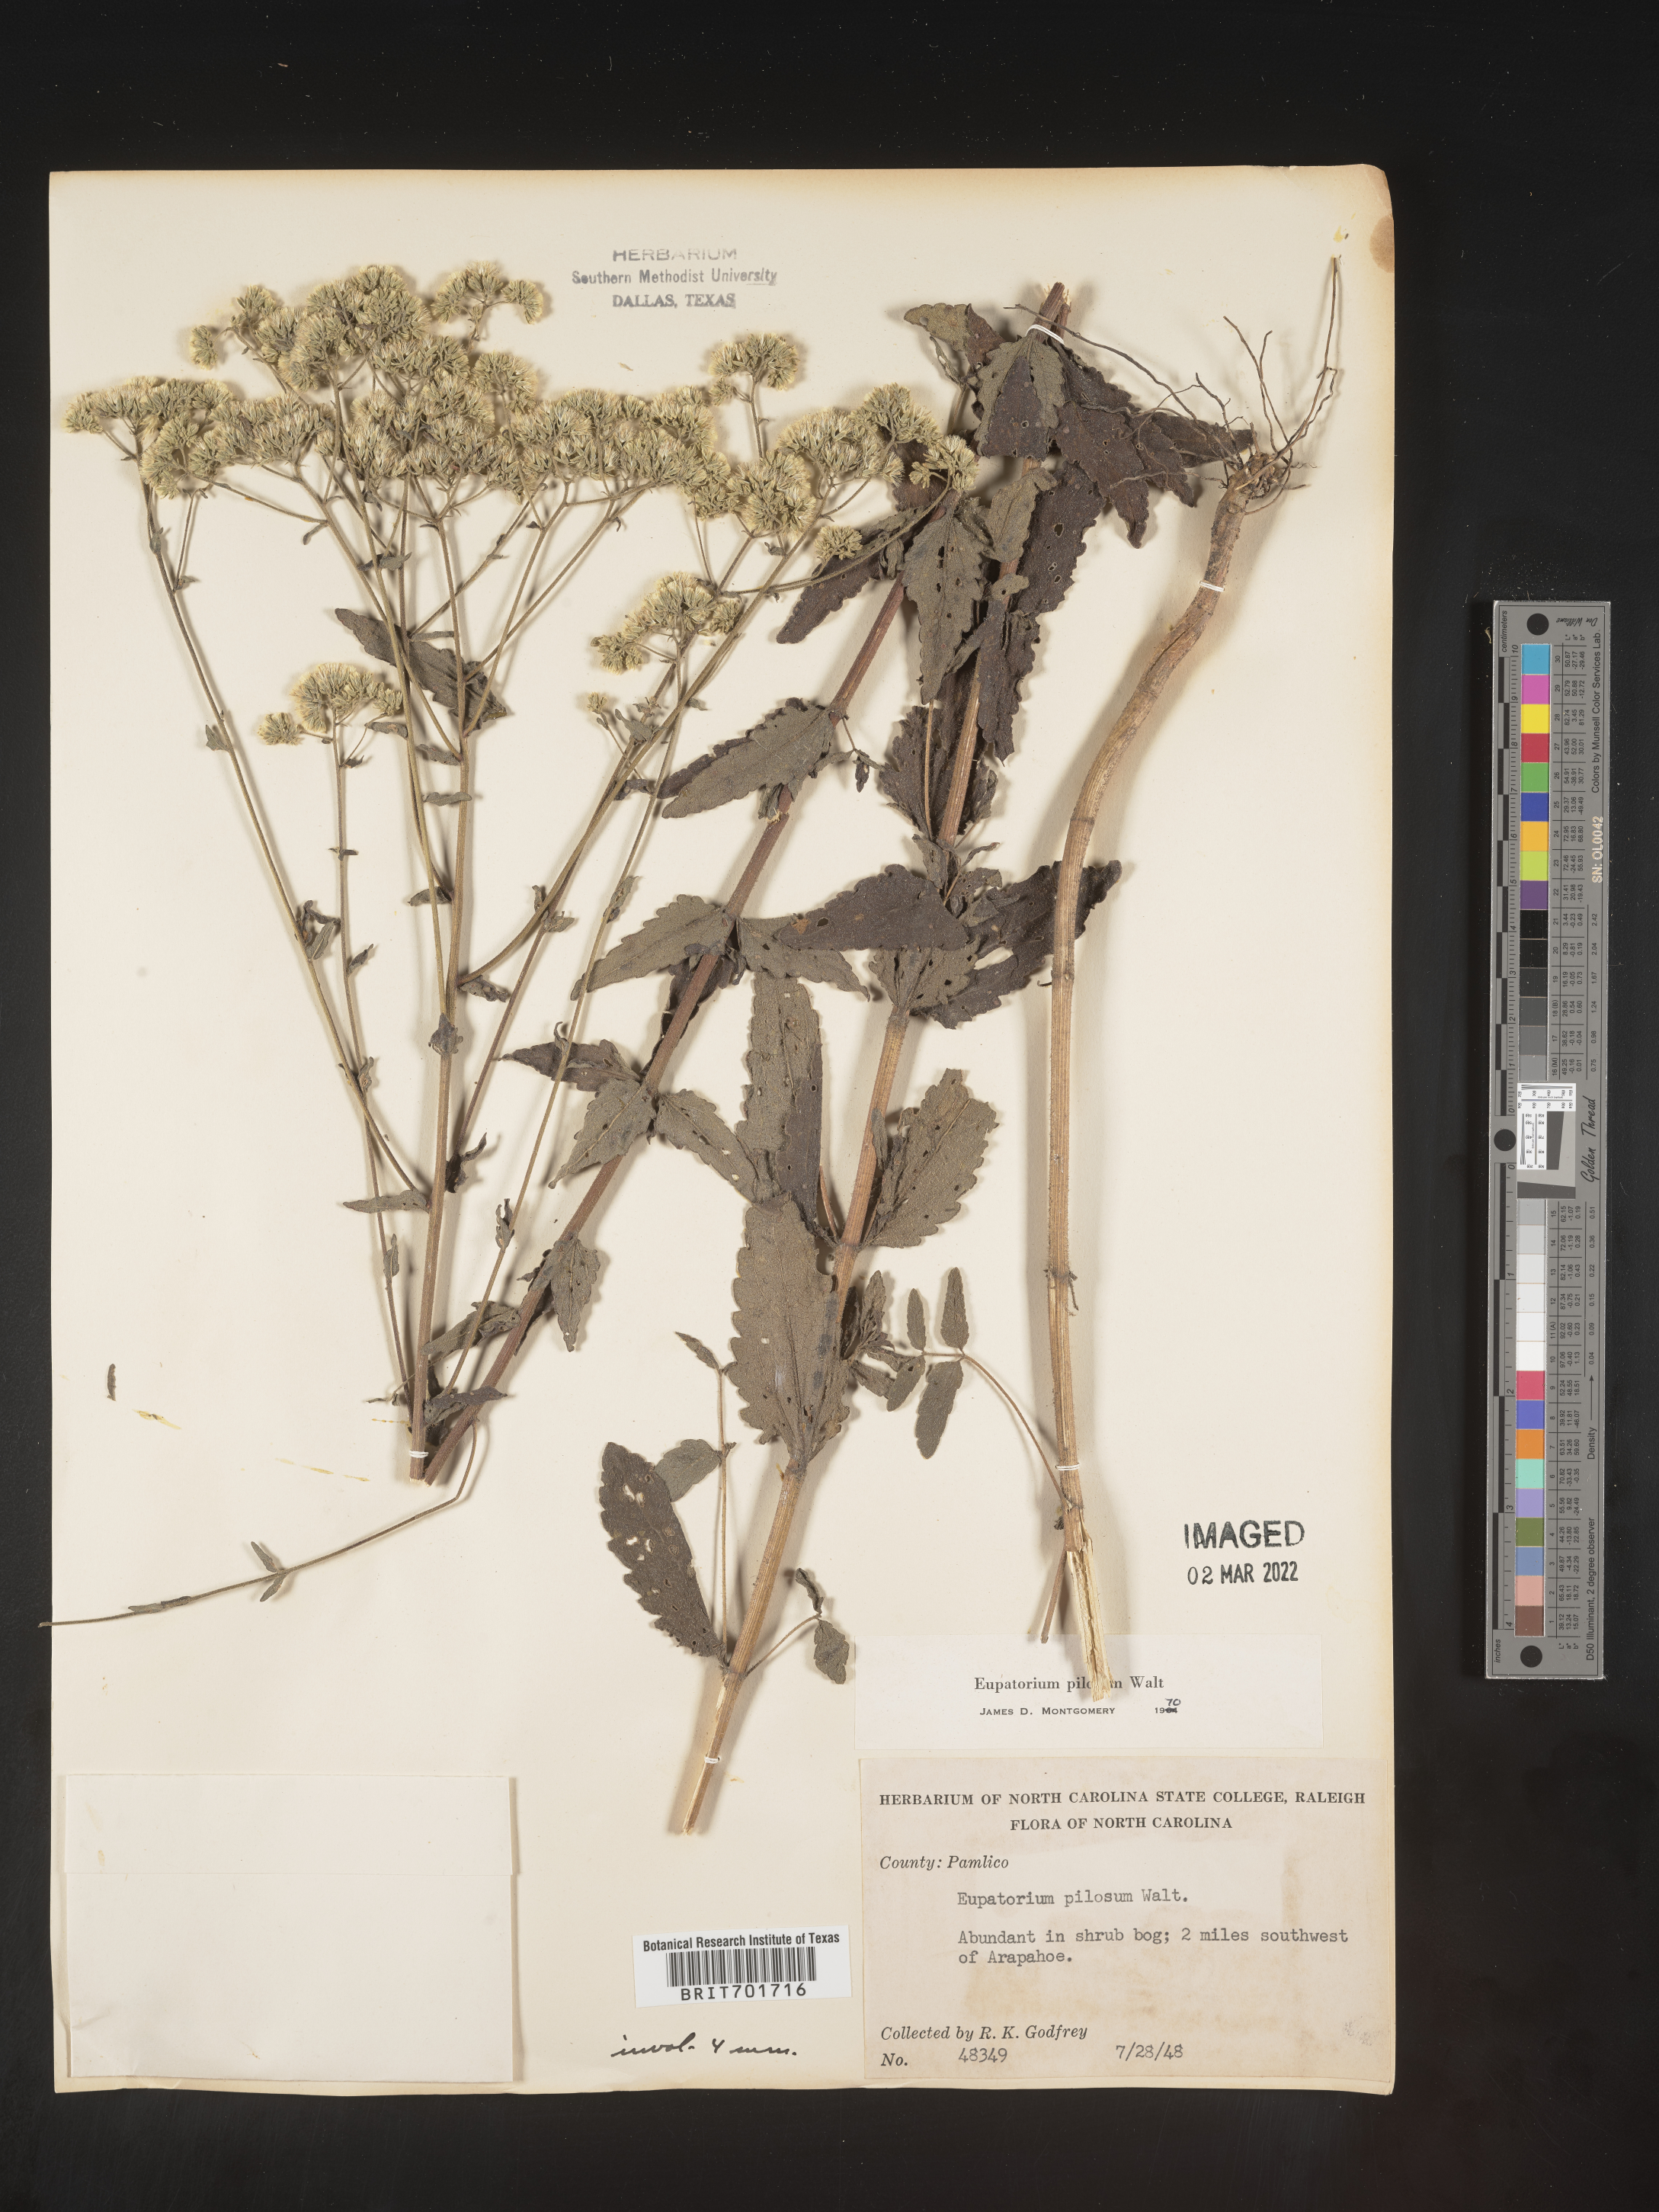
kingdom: Plantae
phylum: Tracheophyta
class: Magnoliopsida
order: Asterales
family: Asteraceae
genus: Eupatorium
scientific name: Eupatorium pilosum
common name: Rough boneset
